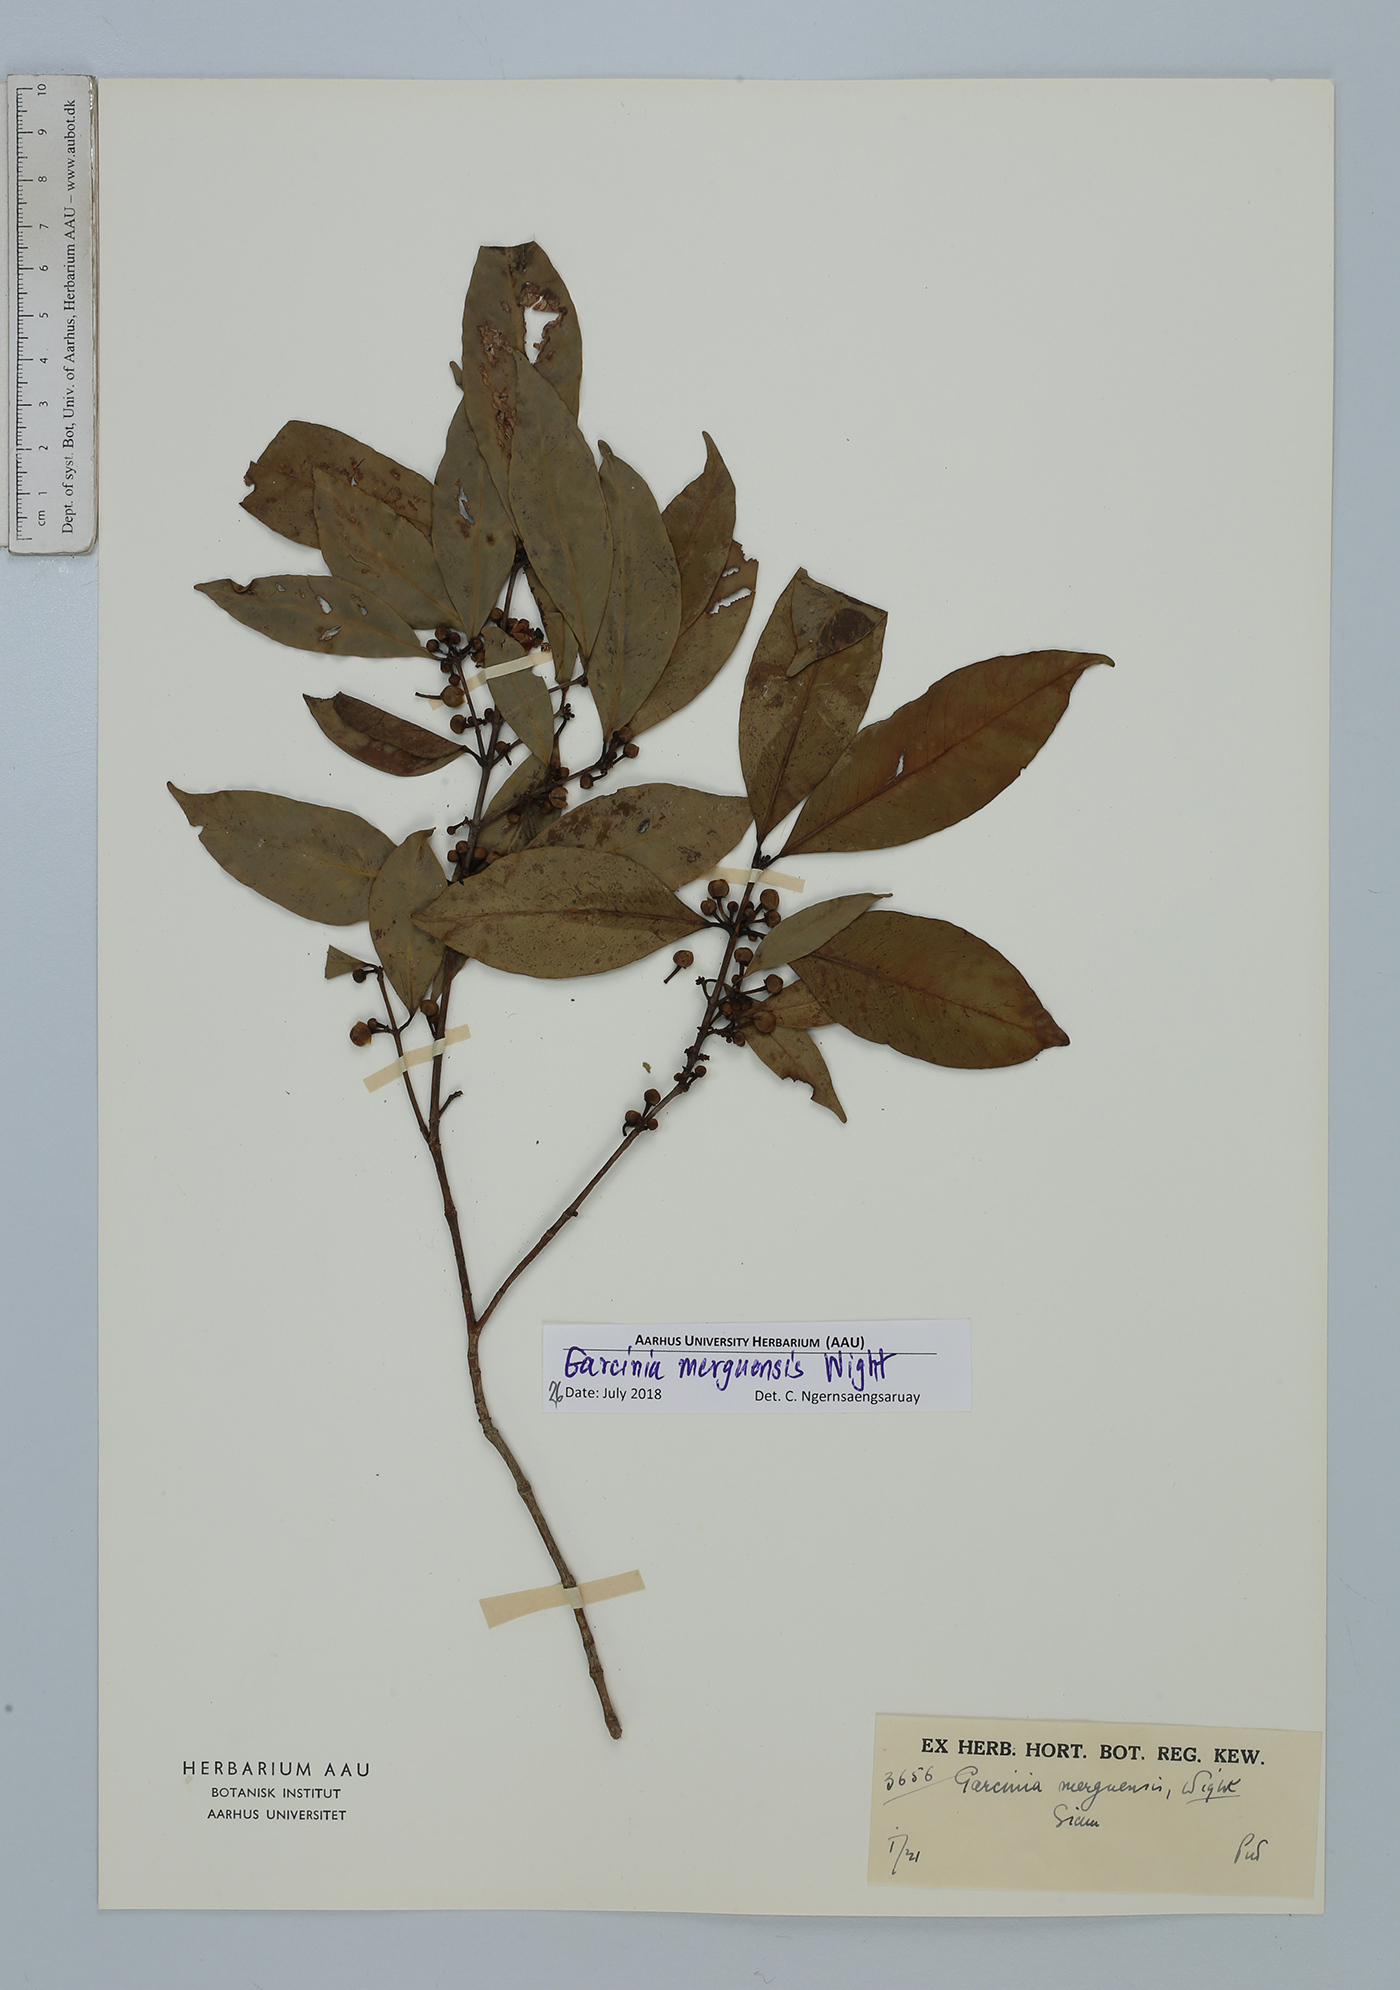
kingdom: Plantae
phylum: Tracheophyta
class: Magnoliopsida
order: Malpighiales
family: Clusiaceae
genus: Garcinia
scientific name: Garcinia merguensis
